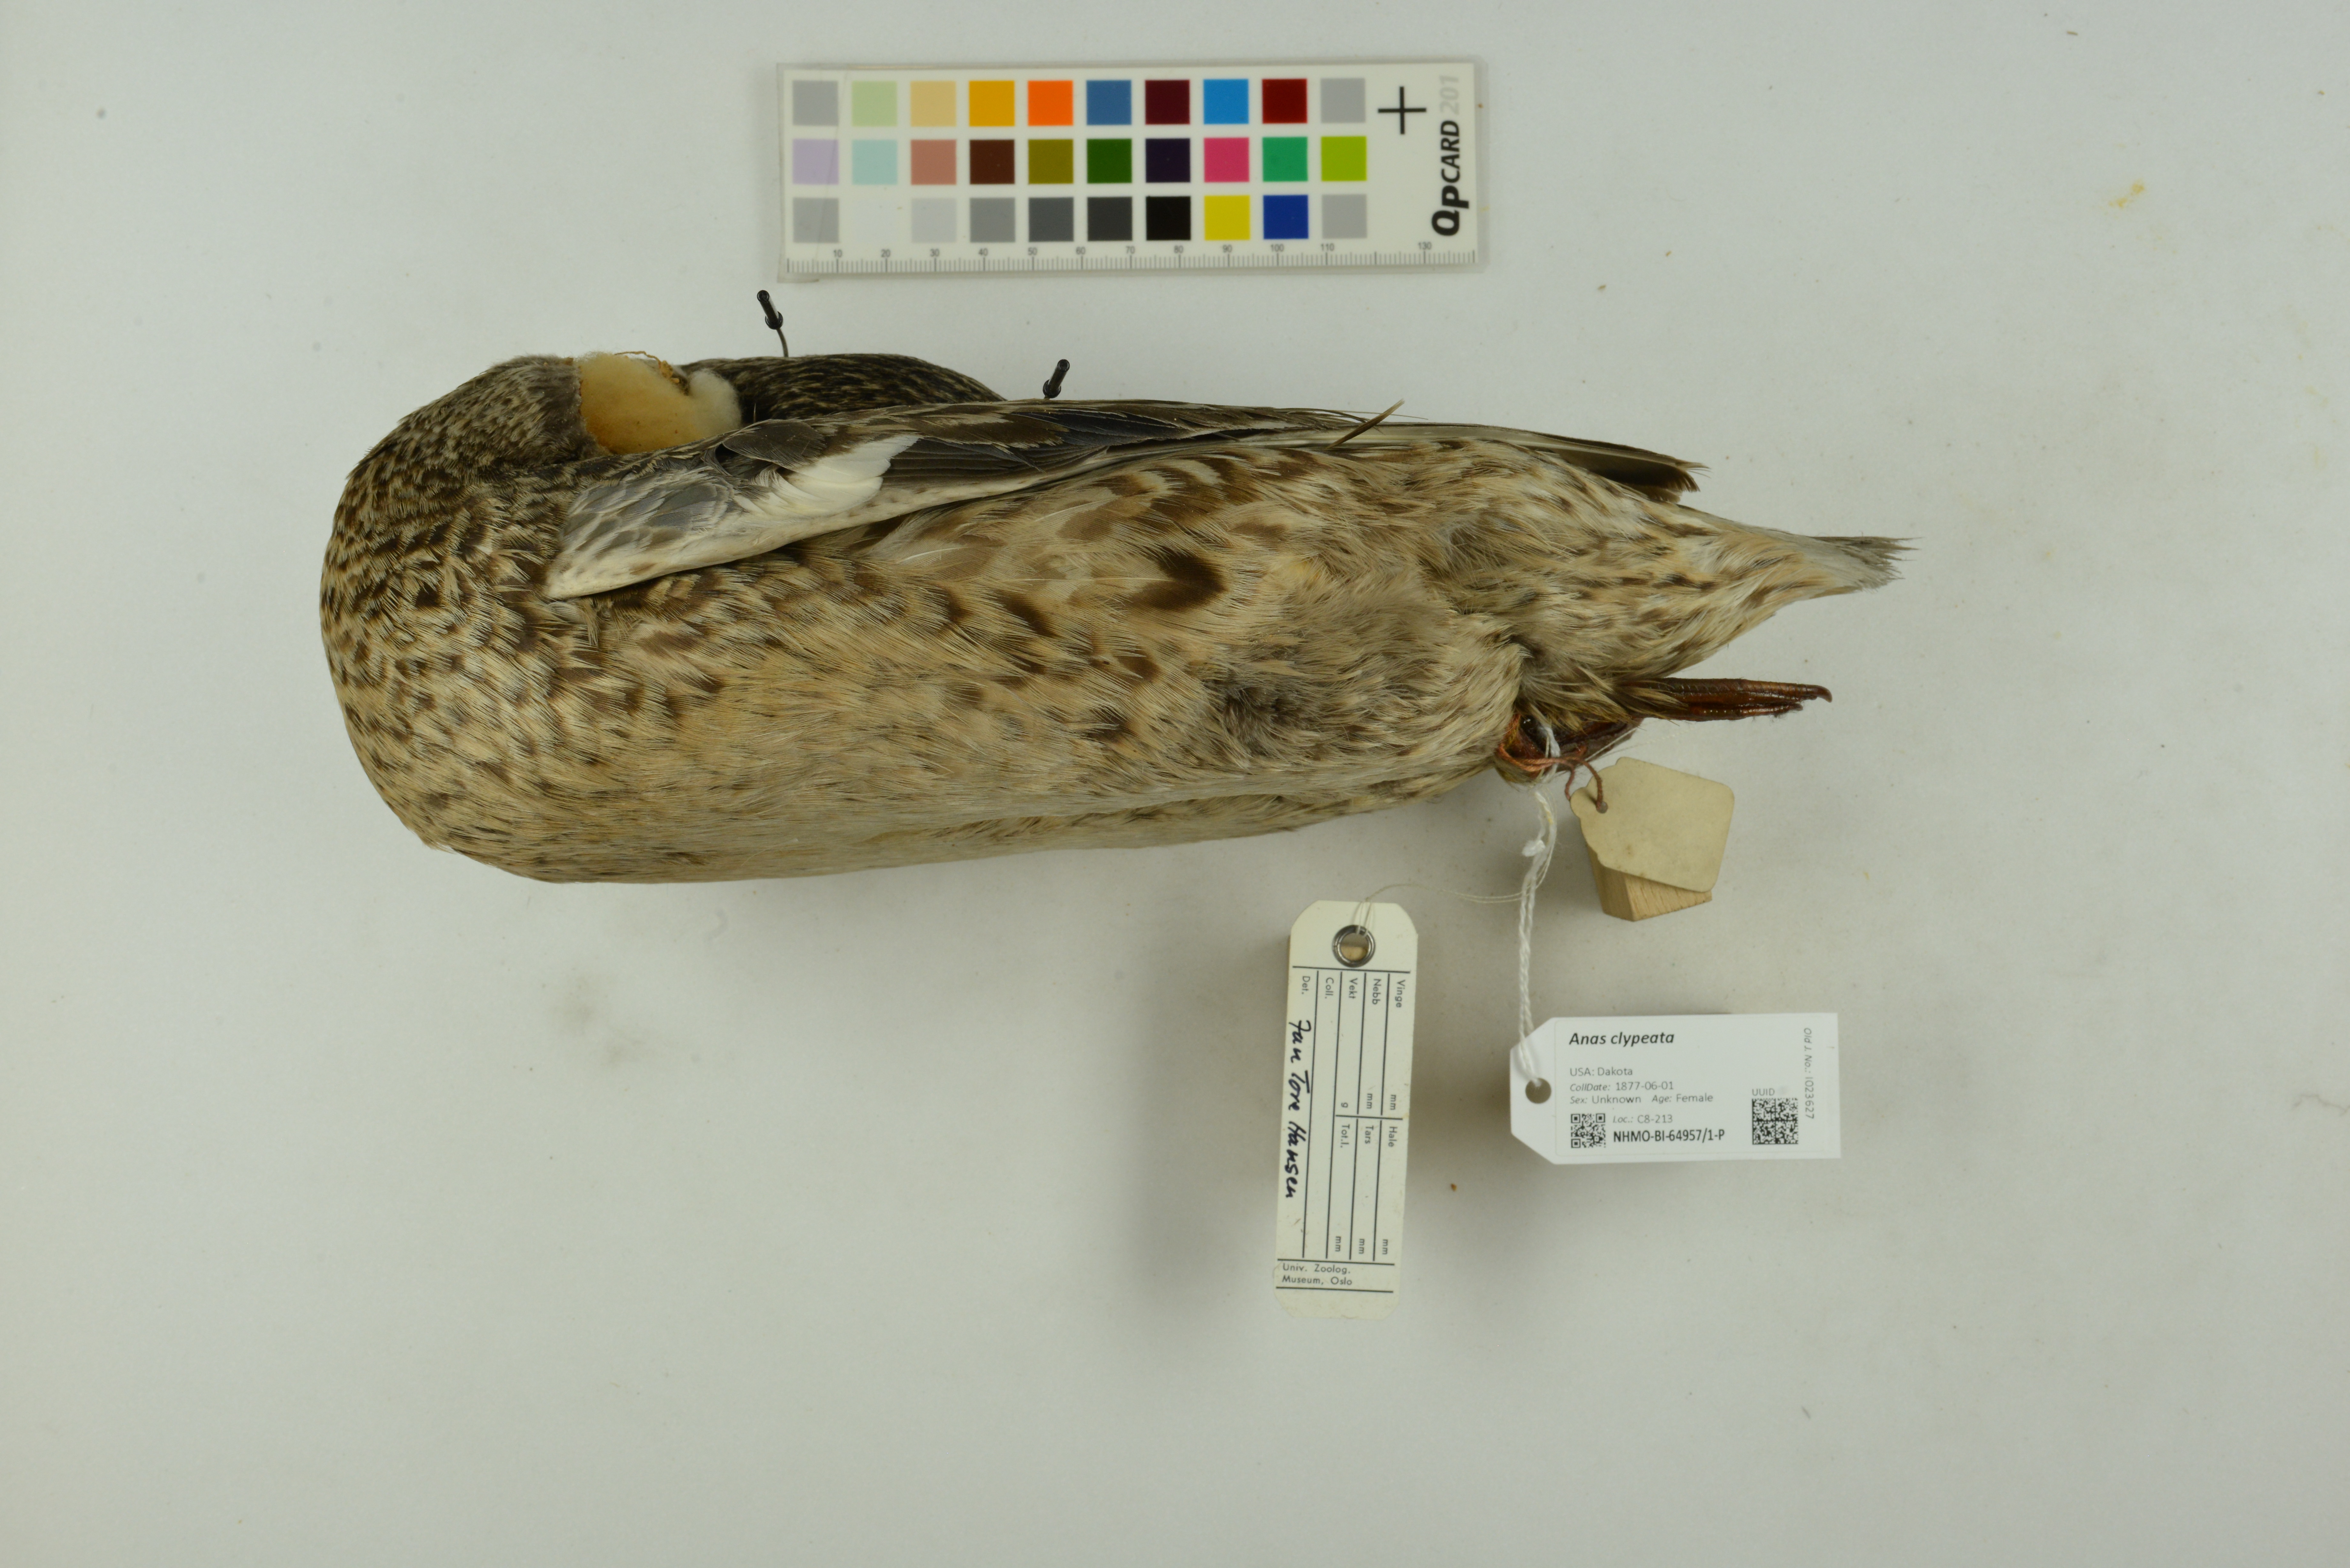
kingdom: Animalia
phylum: Chordata
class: Aves
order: Anseriformes
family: Anatidae
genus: Spatula
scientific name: Spatula clypeata
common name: Northern shoveler
